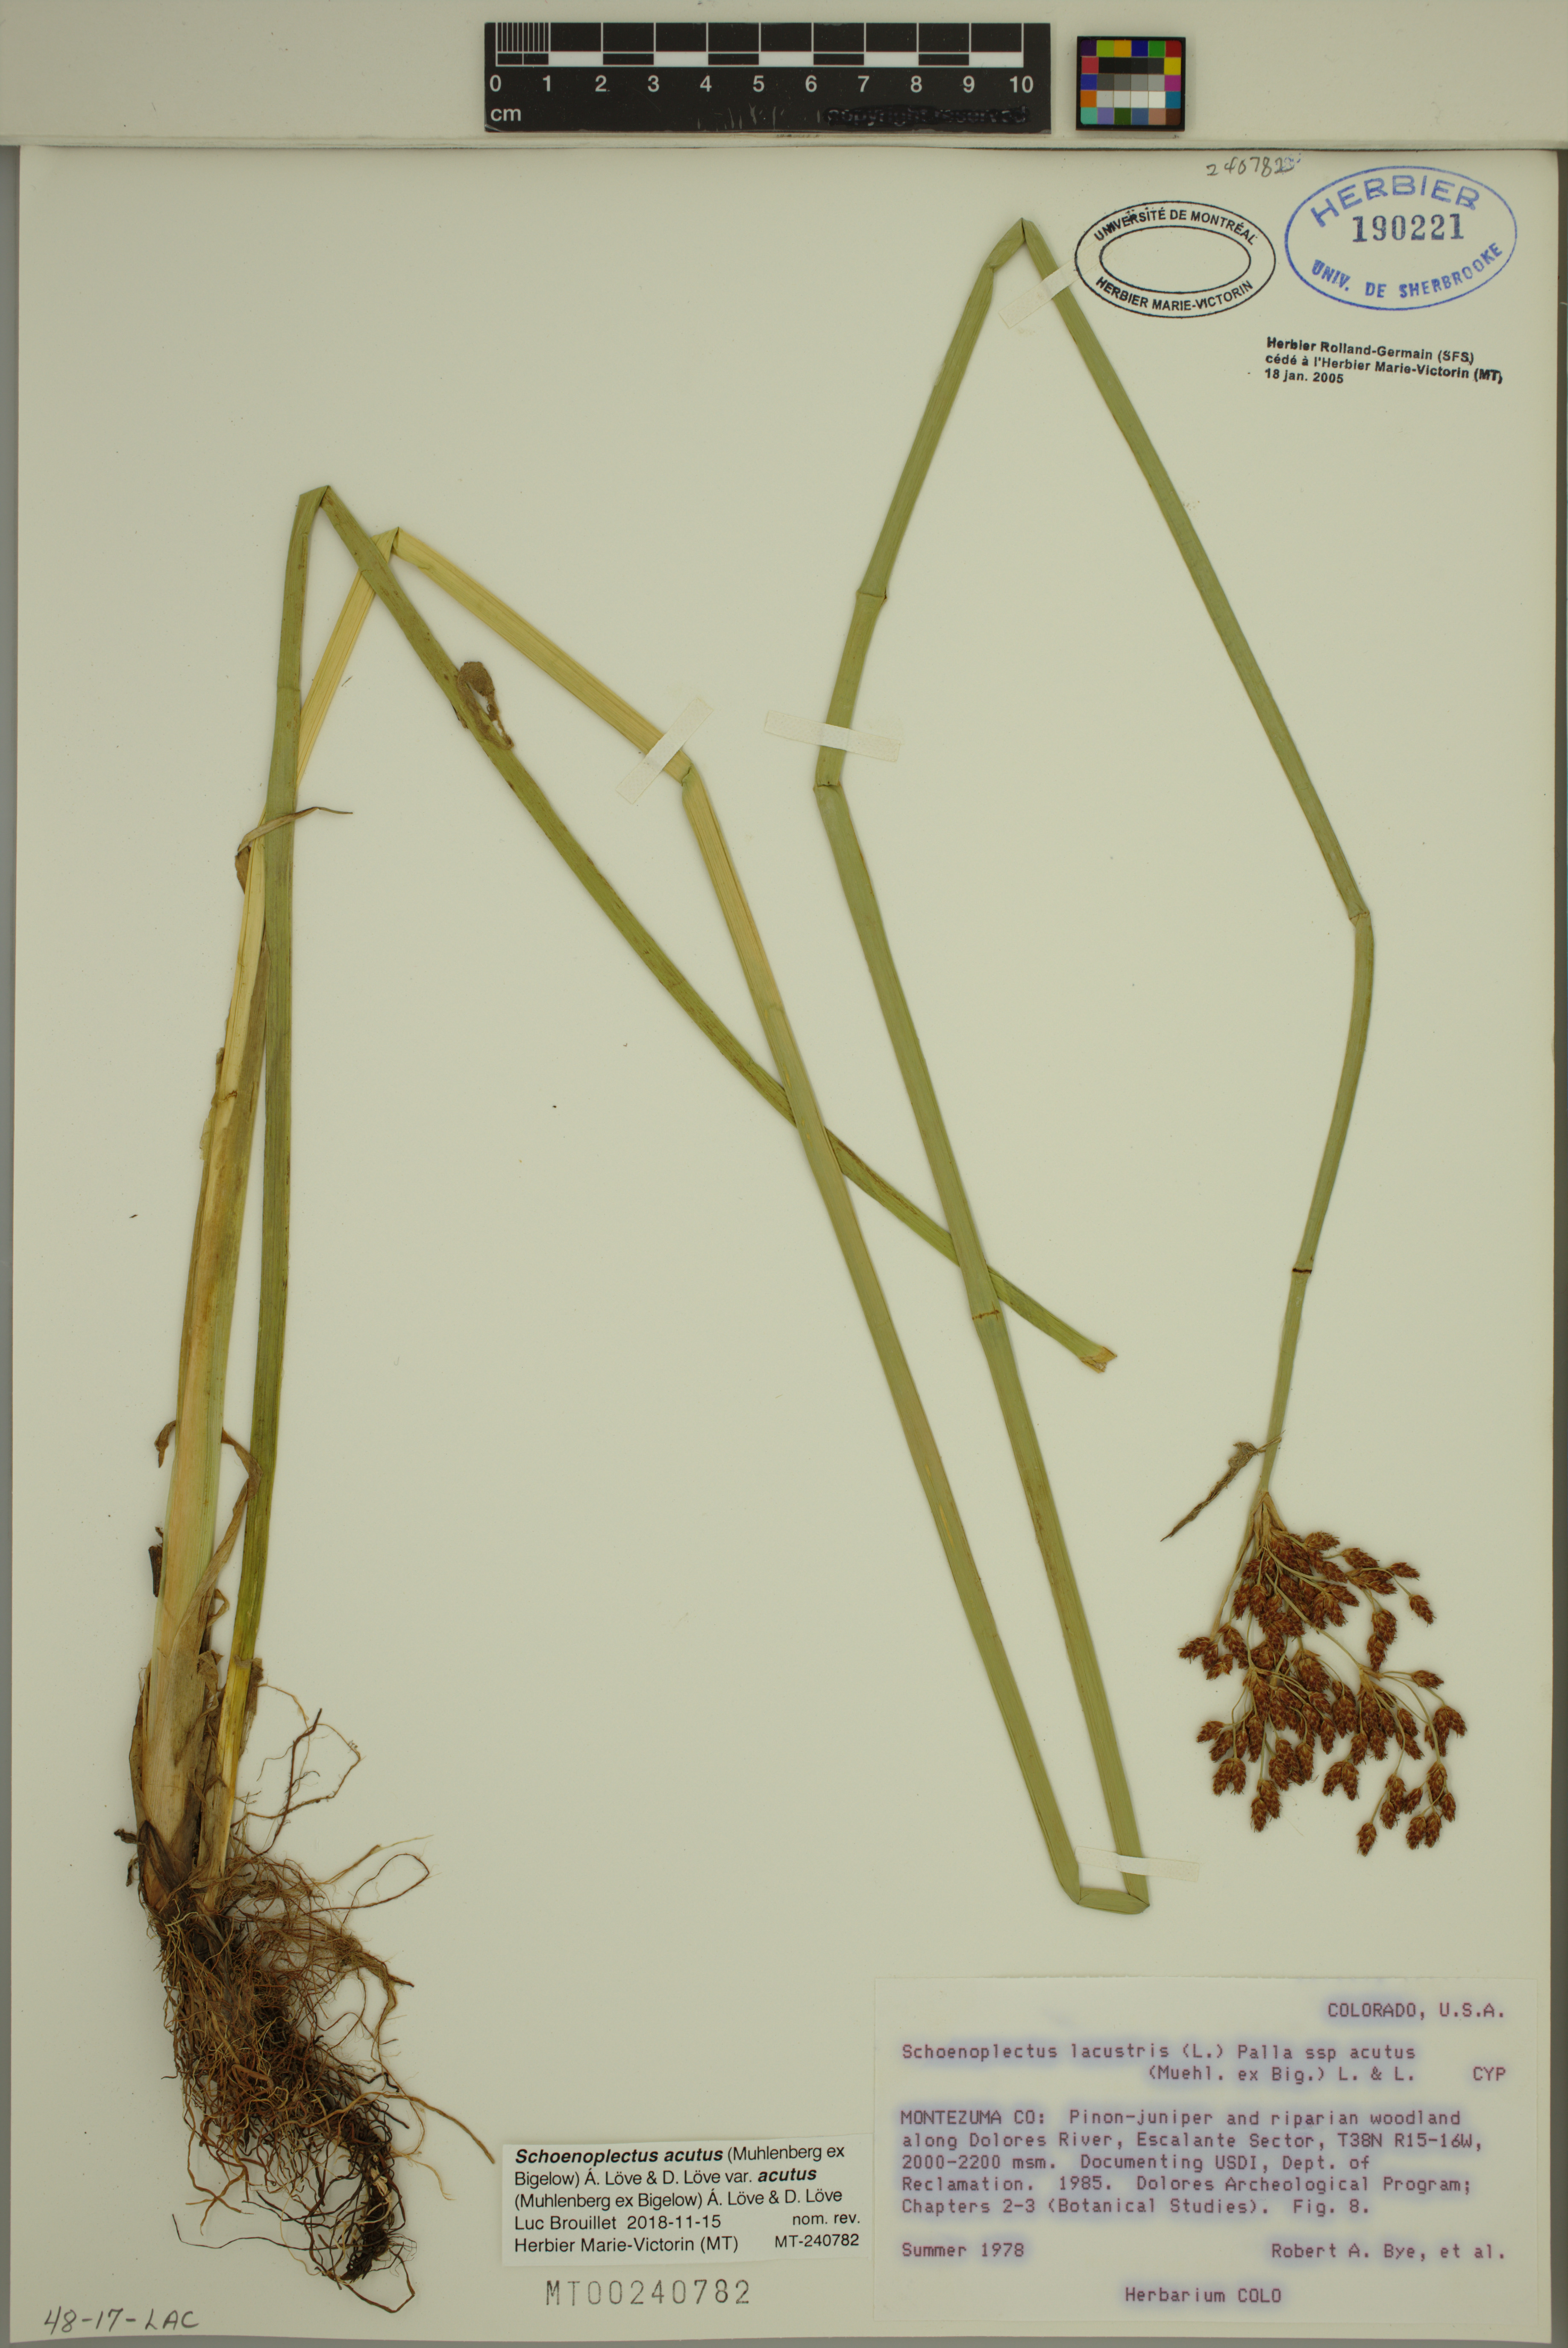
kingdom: Plantae
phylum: Tracheophyta
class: Liliopsida
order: Poales
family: Cyperaceae
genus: Schoenoplectus
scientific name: Schoenoplectus acutus
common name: Hardstem bulrush
